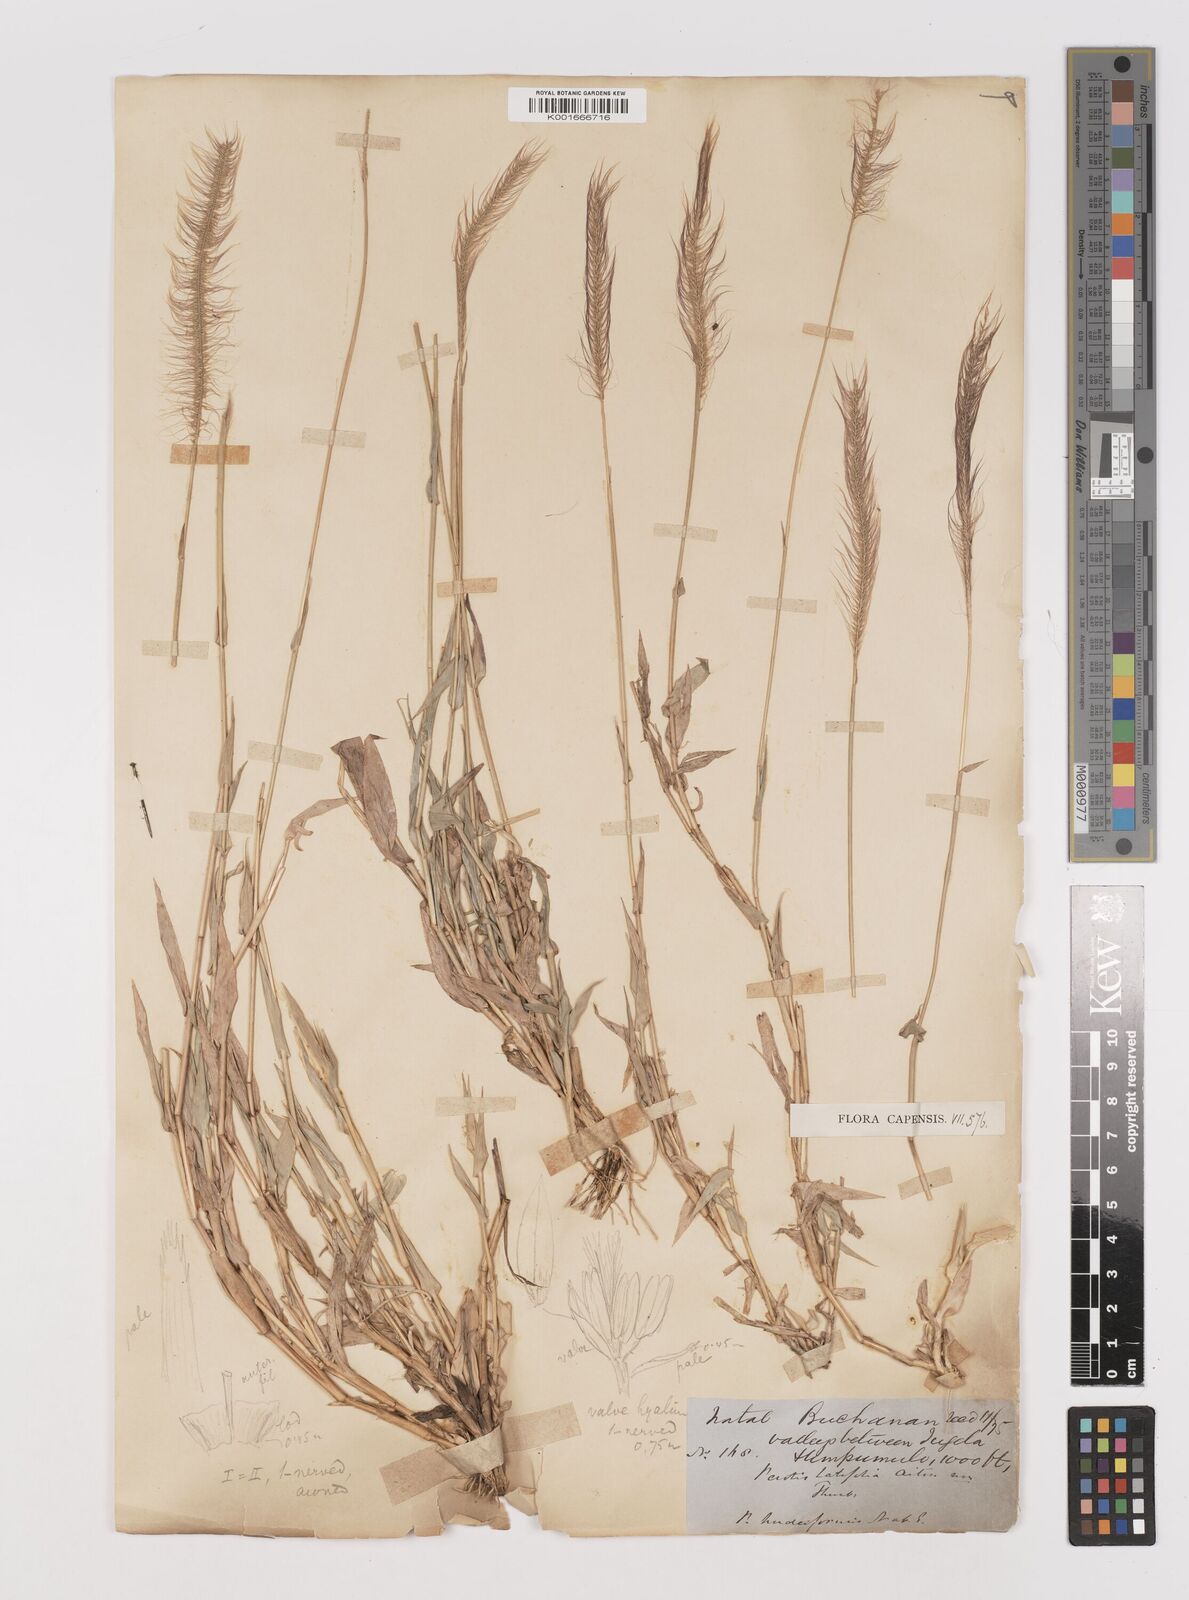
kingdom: Plantae
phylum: Tracheophyta
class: Liliopsida
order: Poales
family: Poaceae
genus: Perotis
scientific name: Perotis patens
